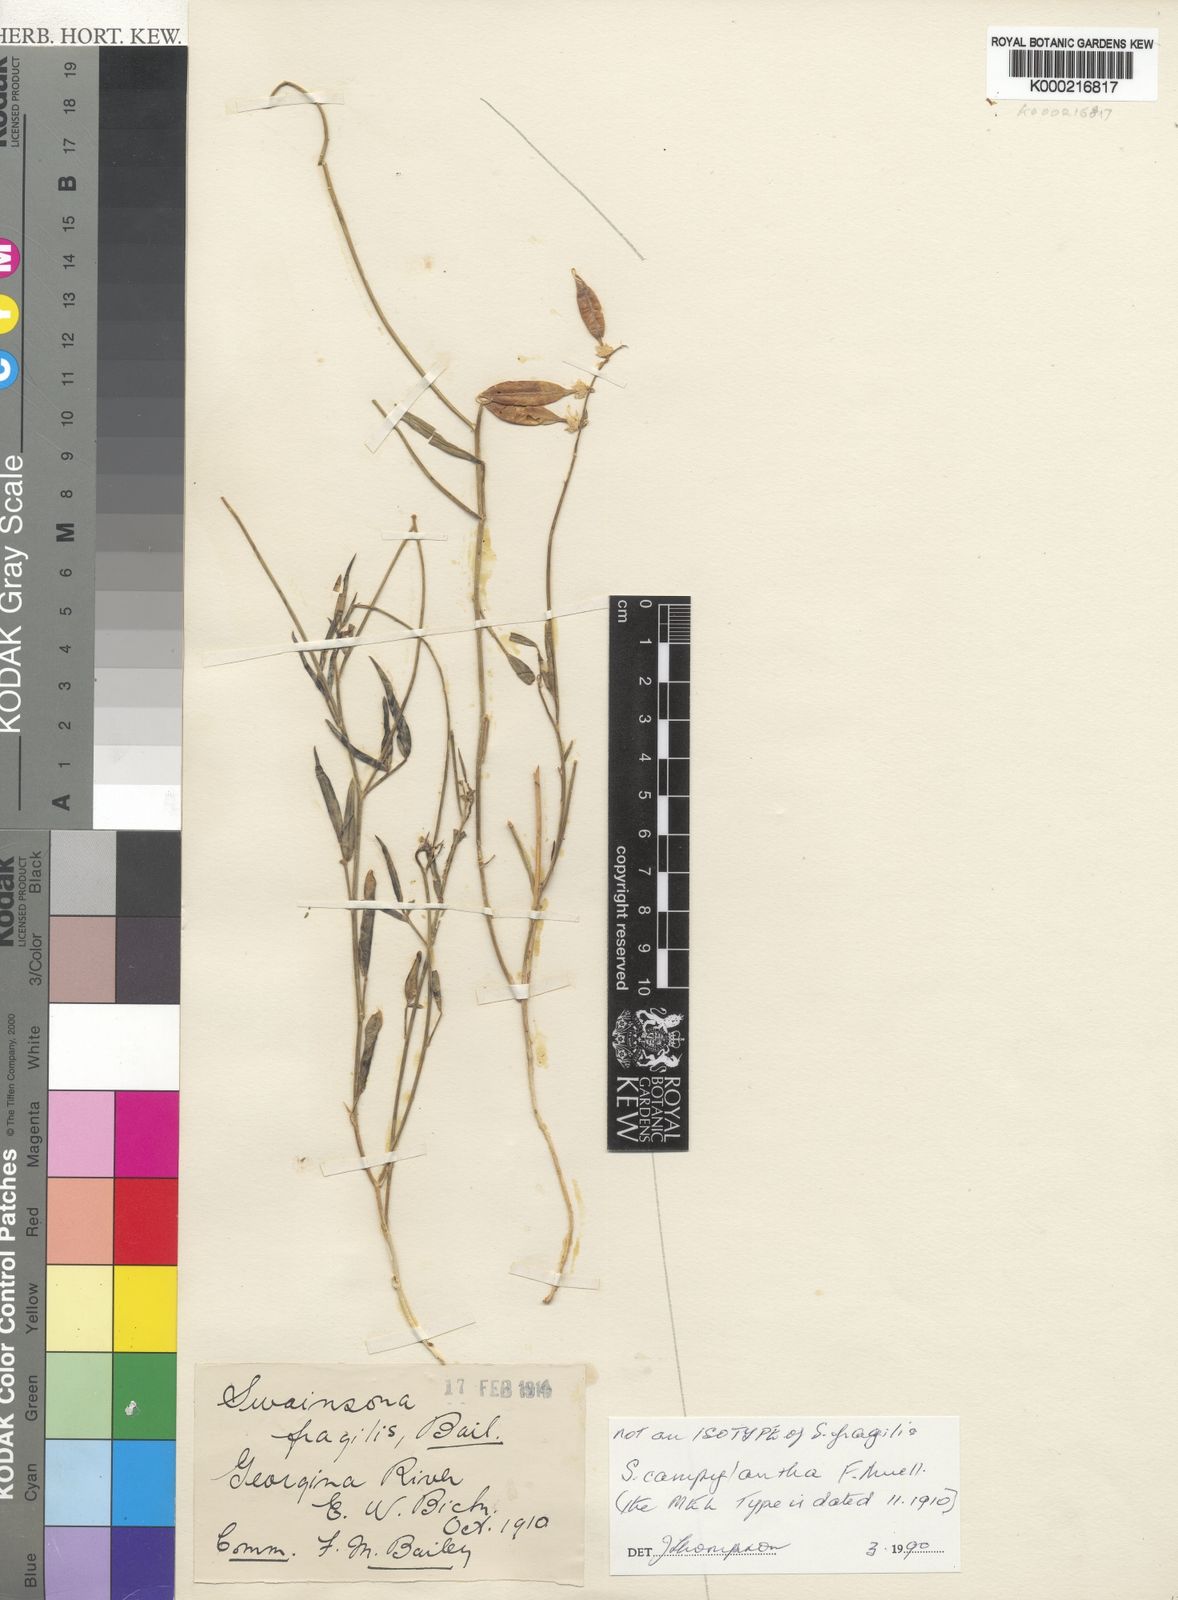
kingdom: Plantae
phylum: Tracheophyta
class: Magnoliopsida
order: Fabales
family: Fabaceae
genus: Swainsona
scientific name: Swainsona campylantha
